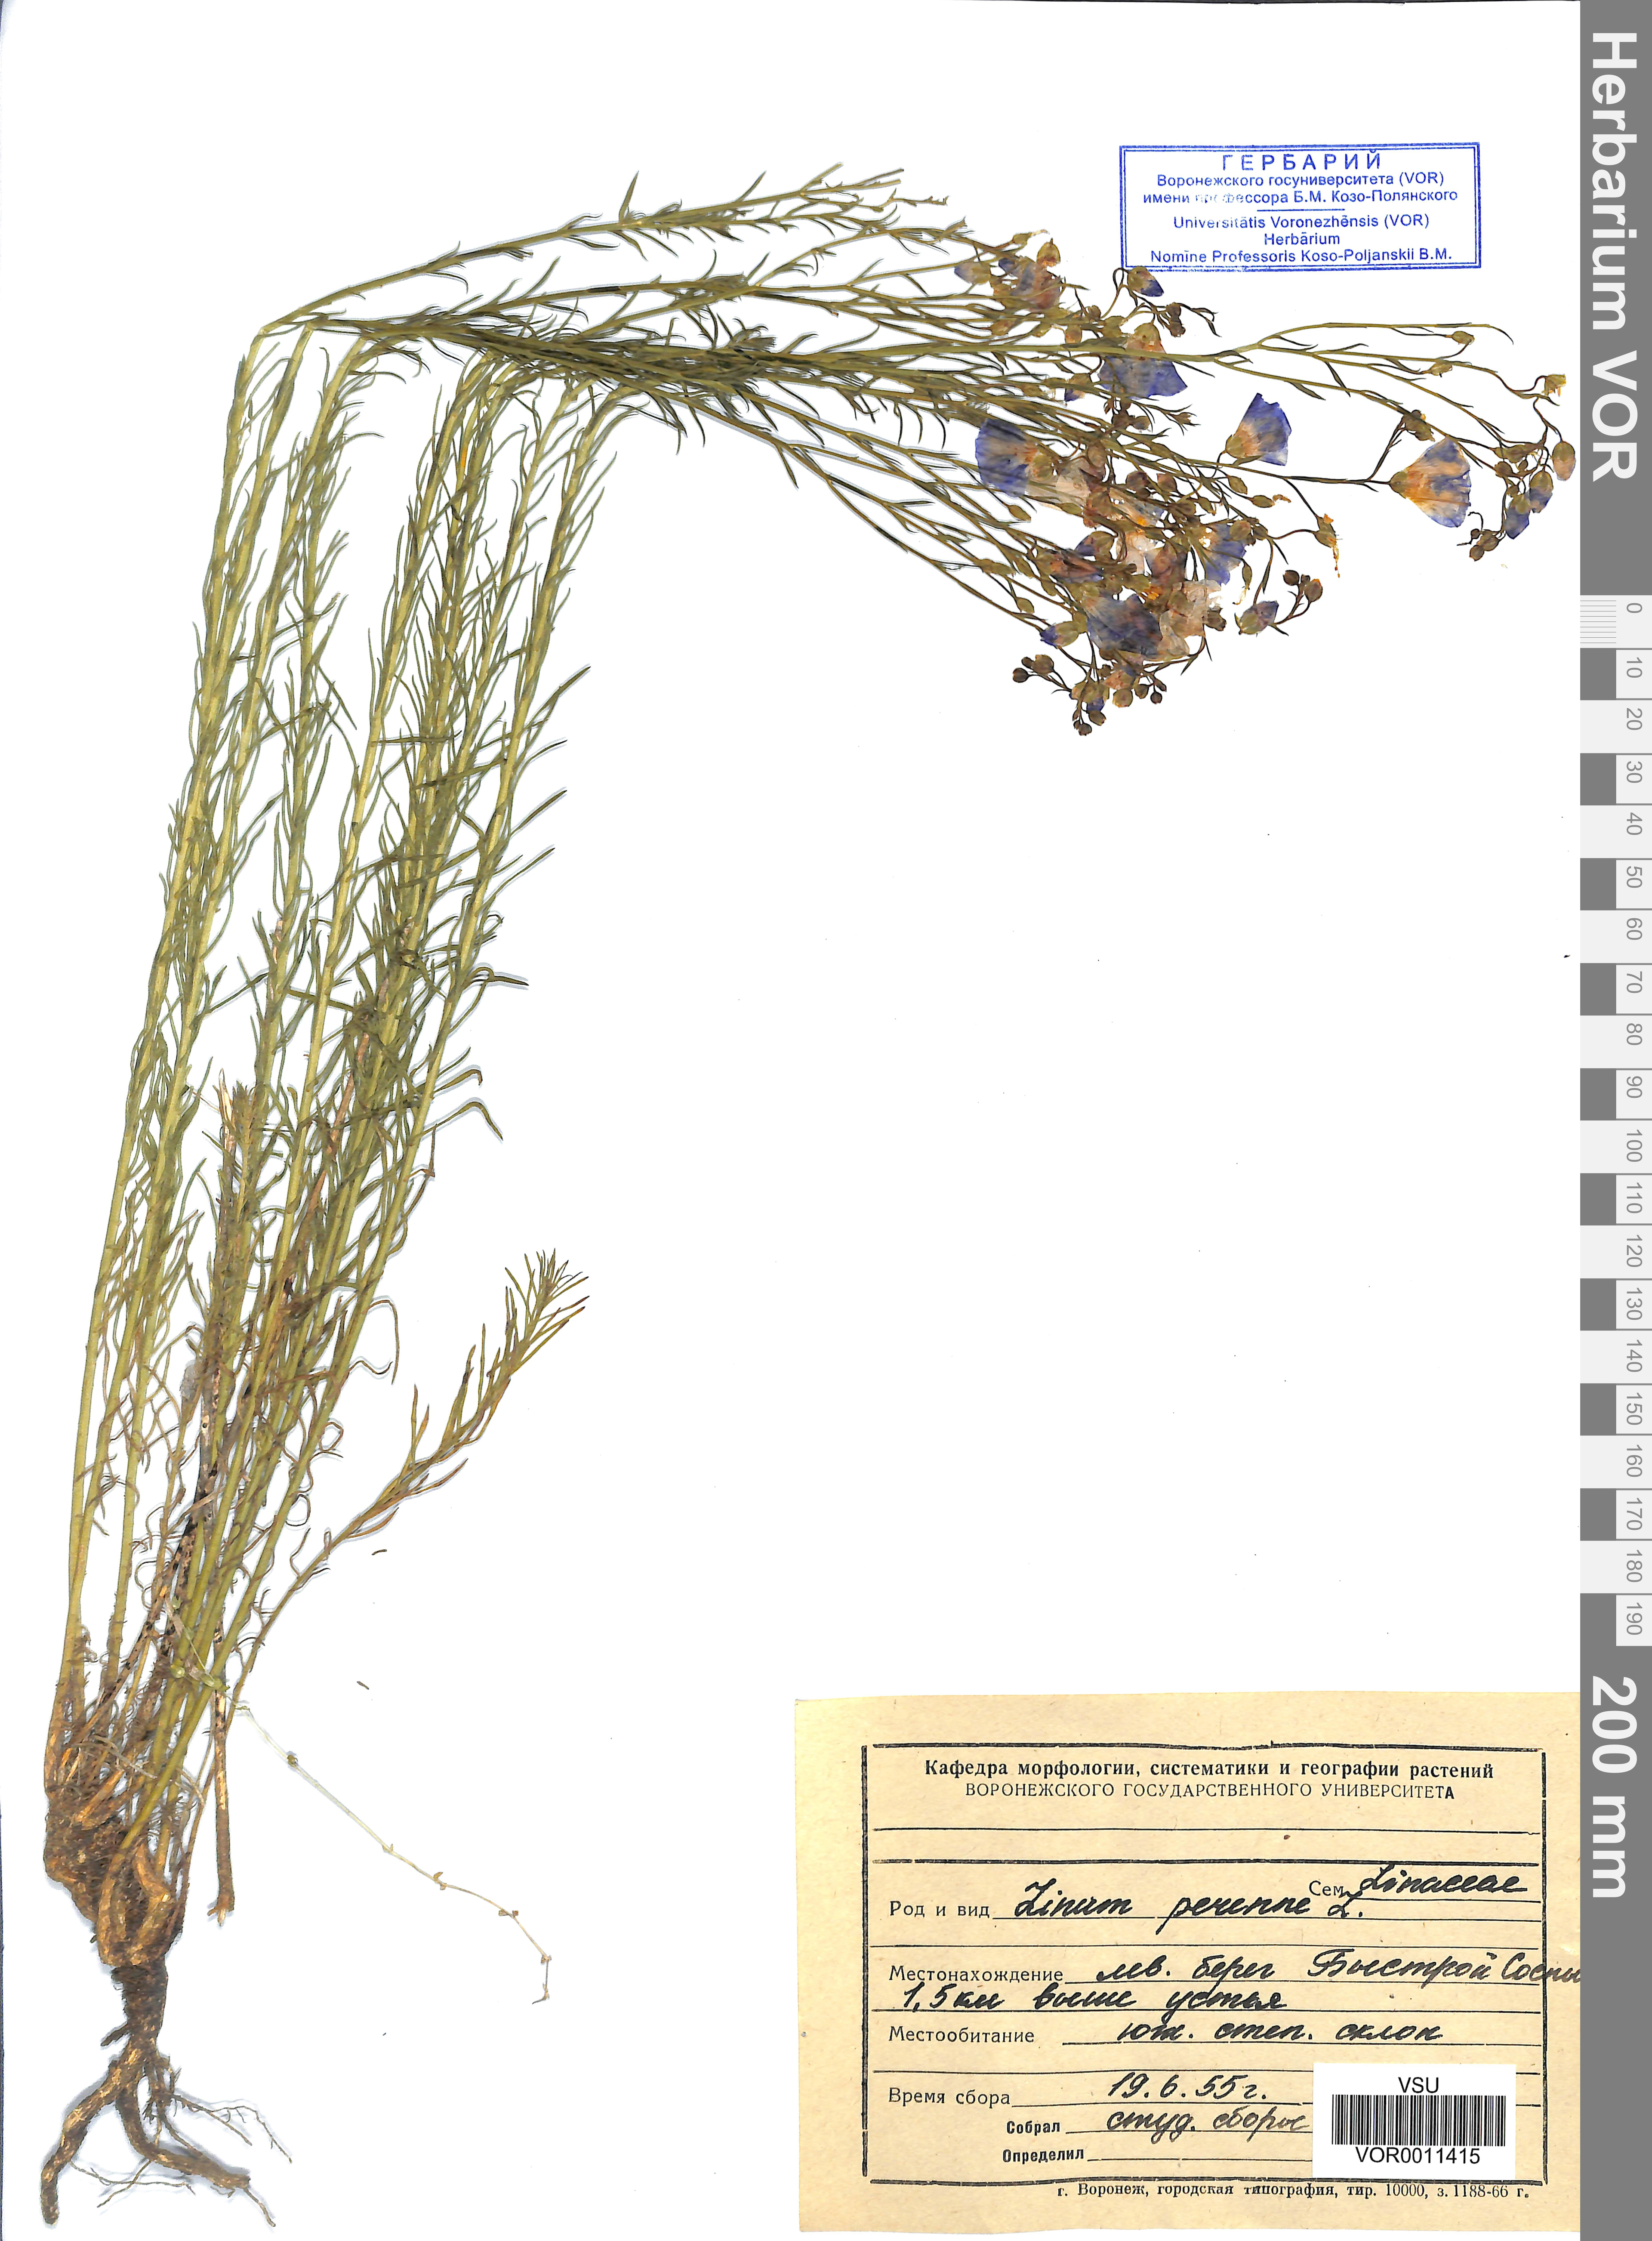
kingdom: Plantae
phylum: Tracheophyta
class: Magnoliopsida
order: Malpighiales
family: Linaceae
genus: Linum
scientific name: Linum perenne
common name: Blue flax
